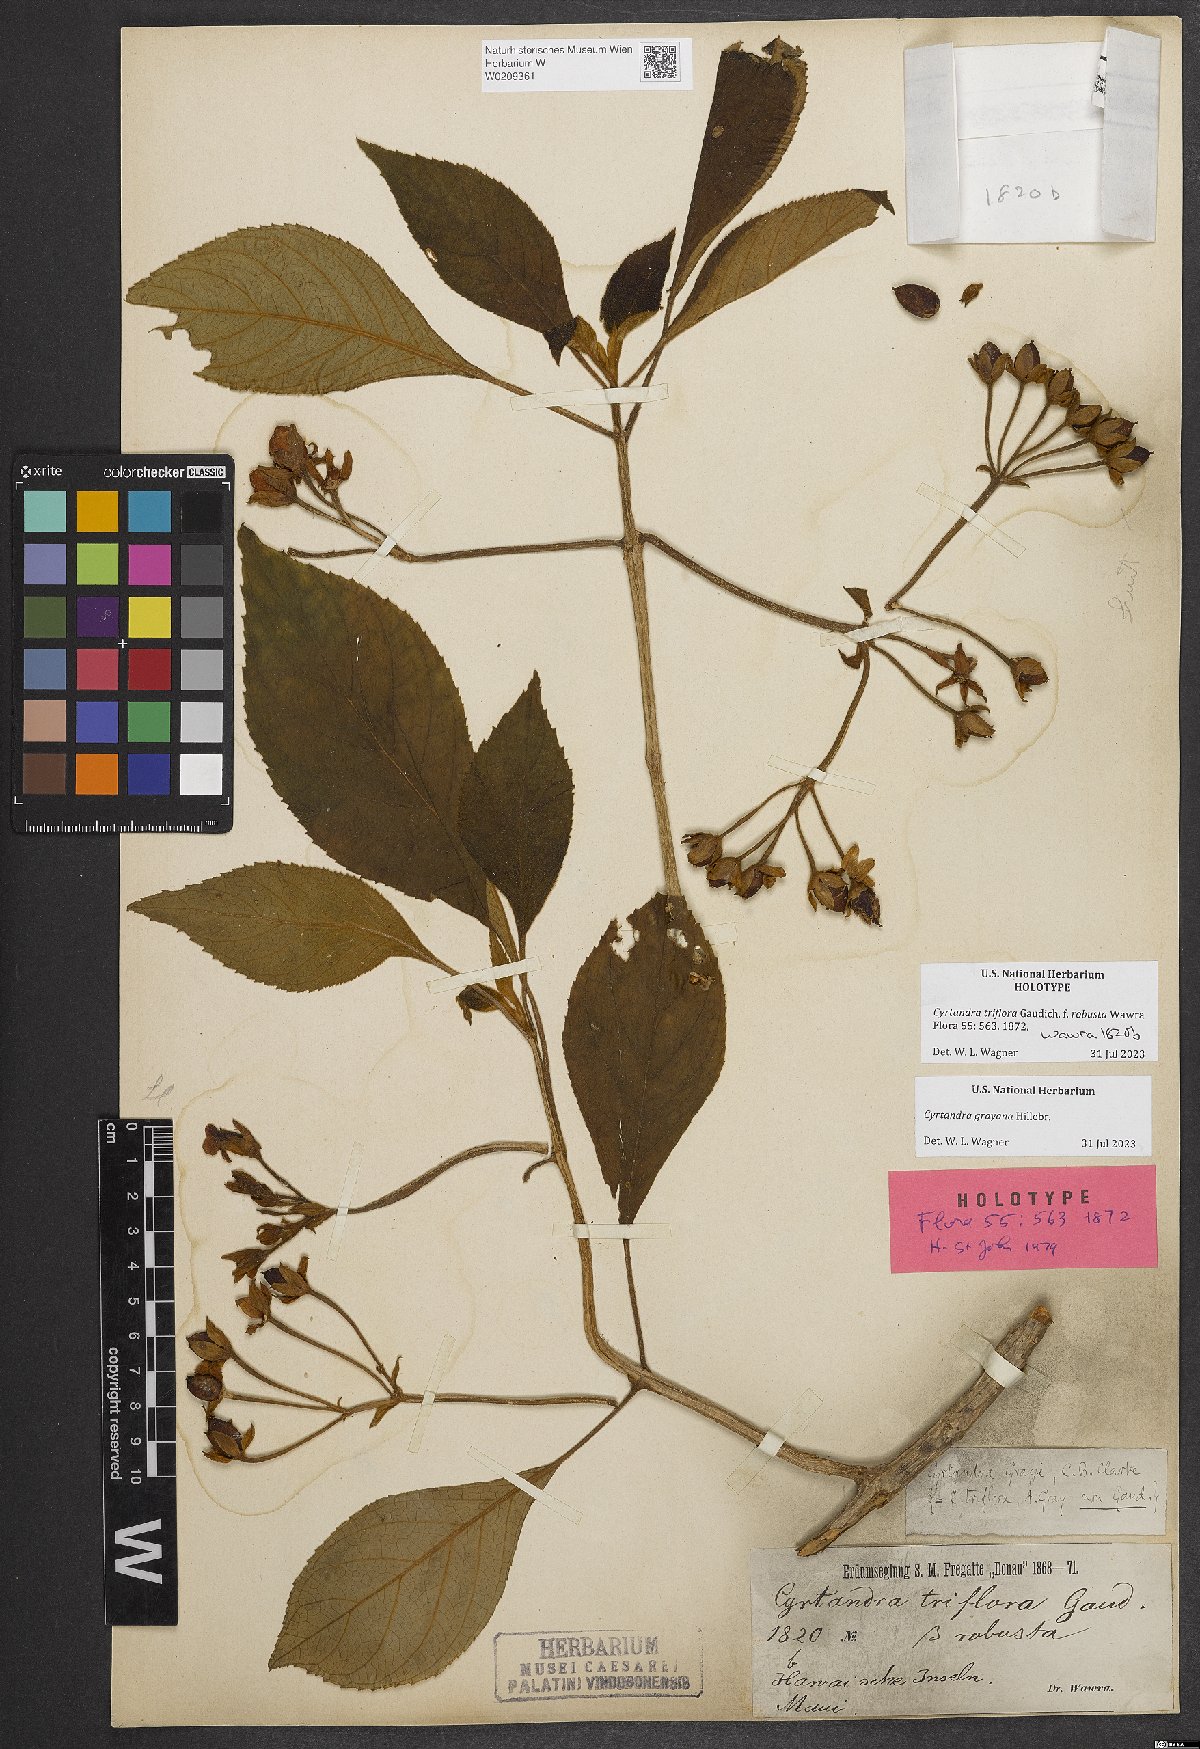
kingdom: Plantae
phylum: Tracheophyta
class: Magnoliopsida
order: Lamiales
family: Gesneriaceae
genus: Cyrtandra
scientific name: Cyrtandra grayana
